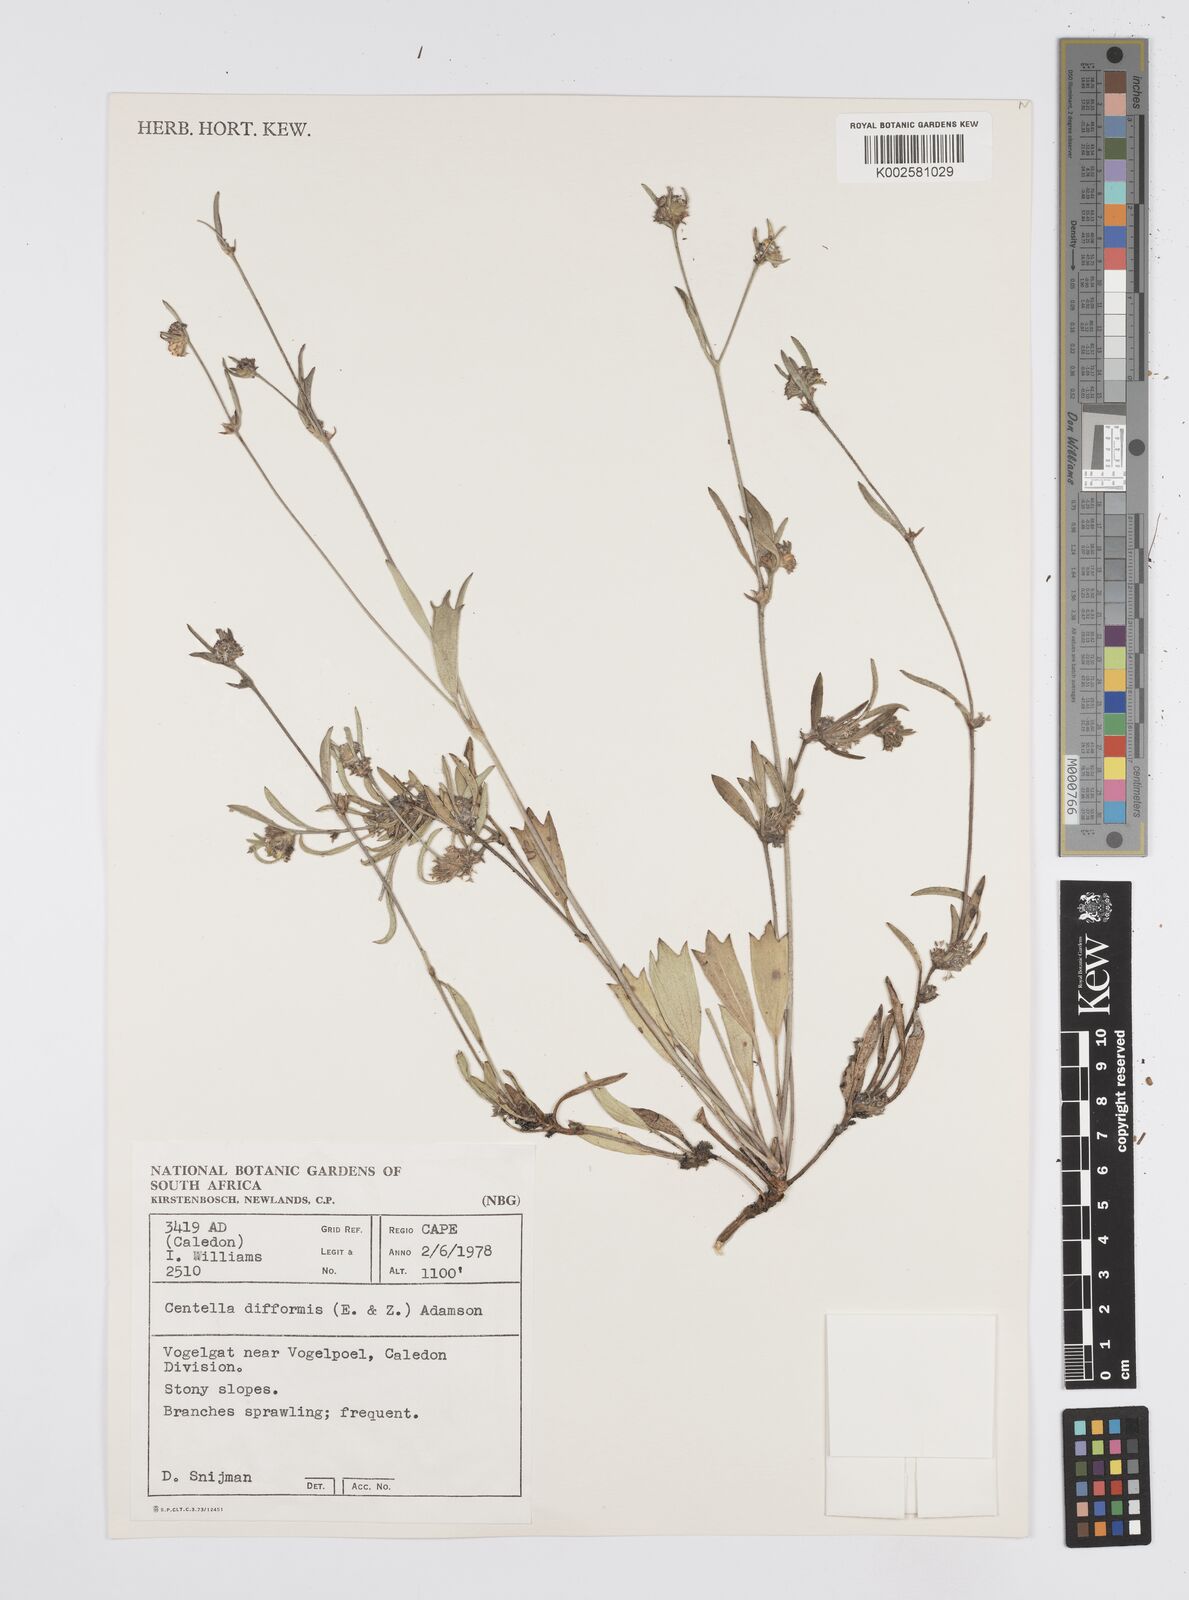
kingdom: Plantae
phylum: Tracheophyta
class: Magnoliopsida
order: Apiales
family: Apiaceae
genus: Centella
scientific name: Centella difformis
